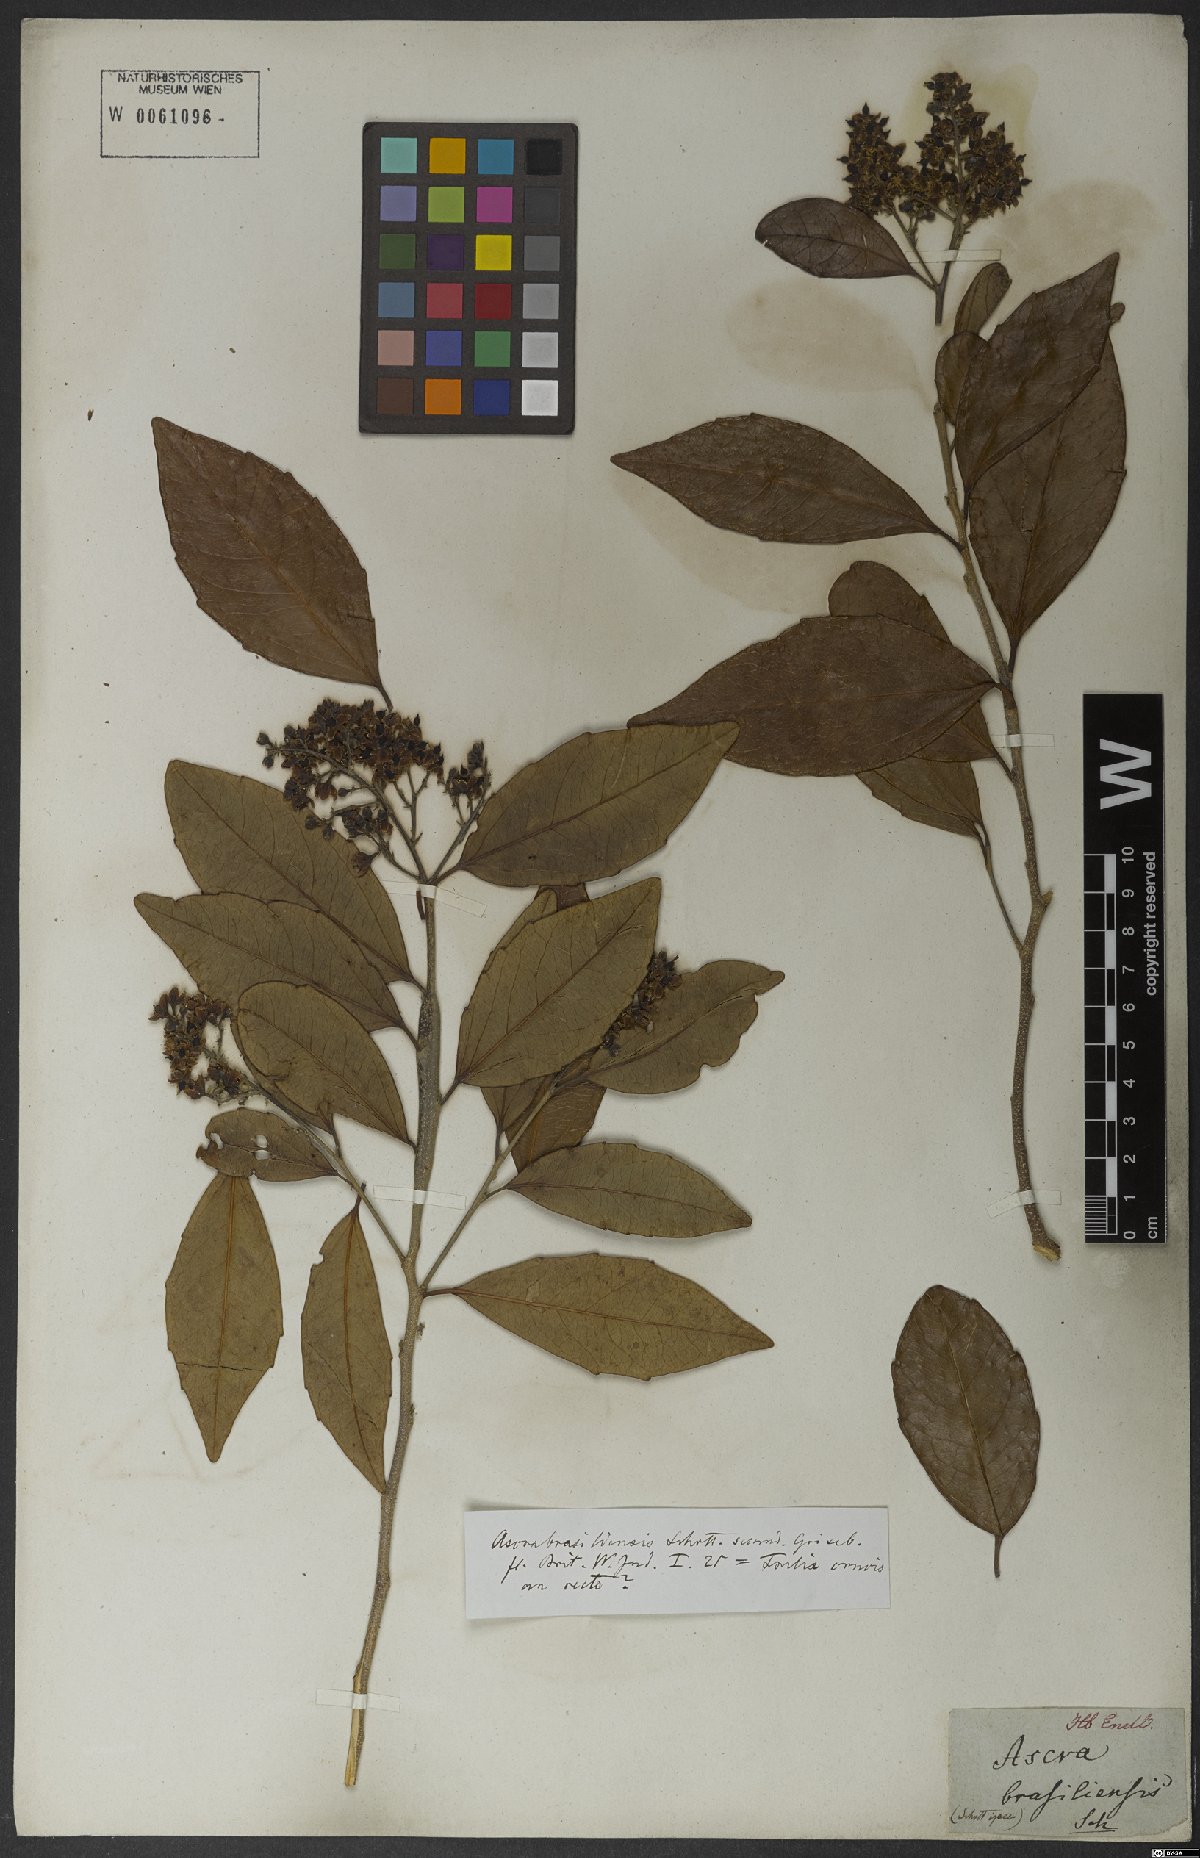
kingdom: Plantae
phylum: Tracheophyta
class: Magnoliopsida
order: Malpighiales
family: Salicaceae
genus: Banara
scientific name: Banara brasiliensis
